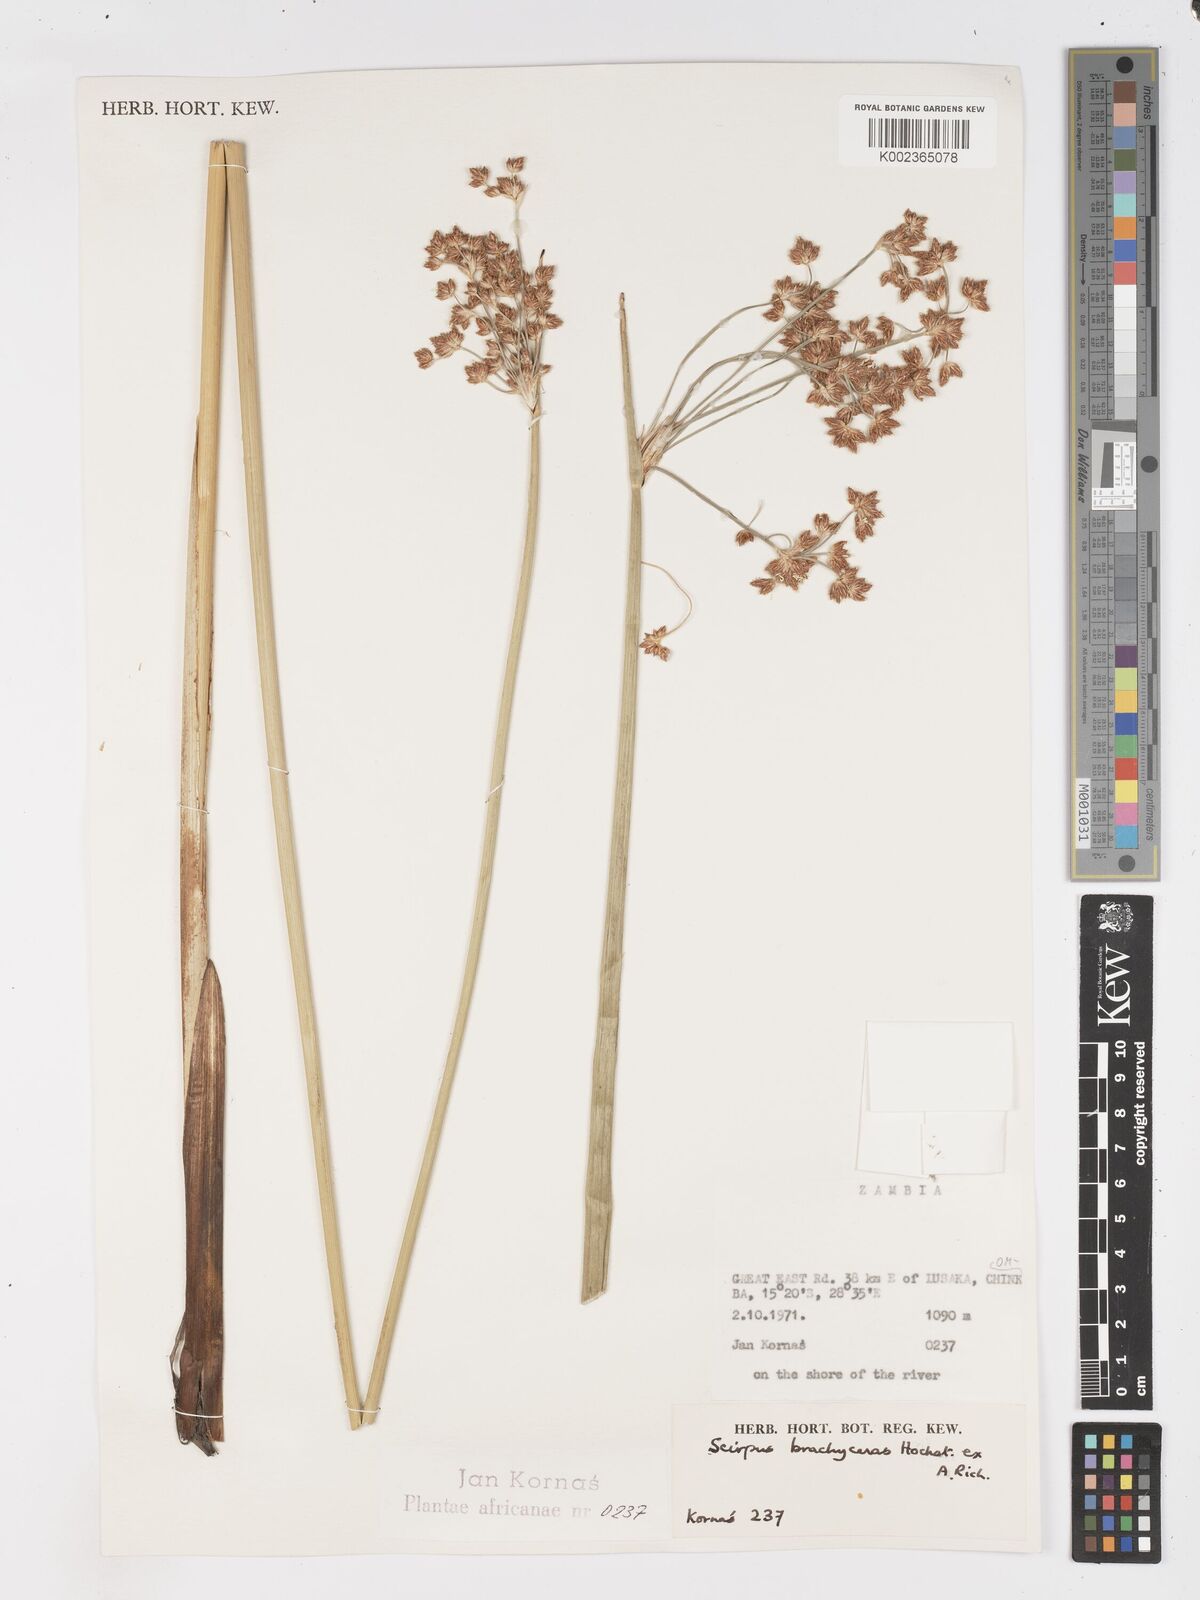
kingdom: Plantae
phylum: Tracheophyta
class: Liliopsida
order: Poales
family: Cyperaceae
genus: Schoenoplectiella
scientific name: Schoenoplectiella corymbosa
